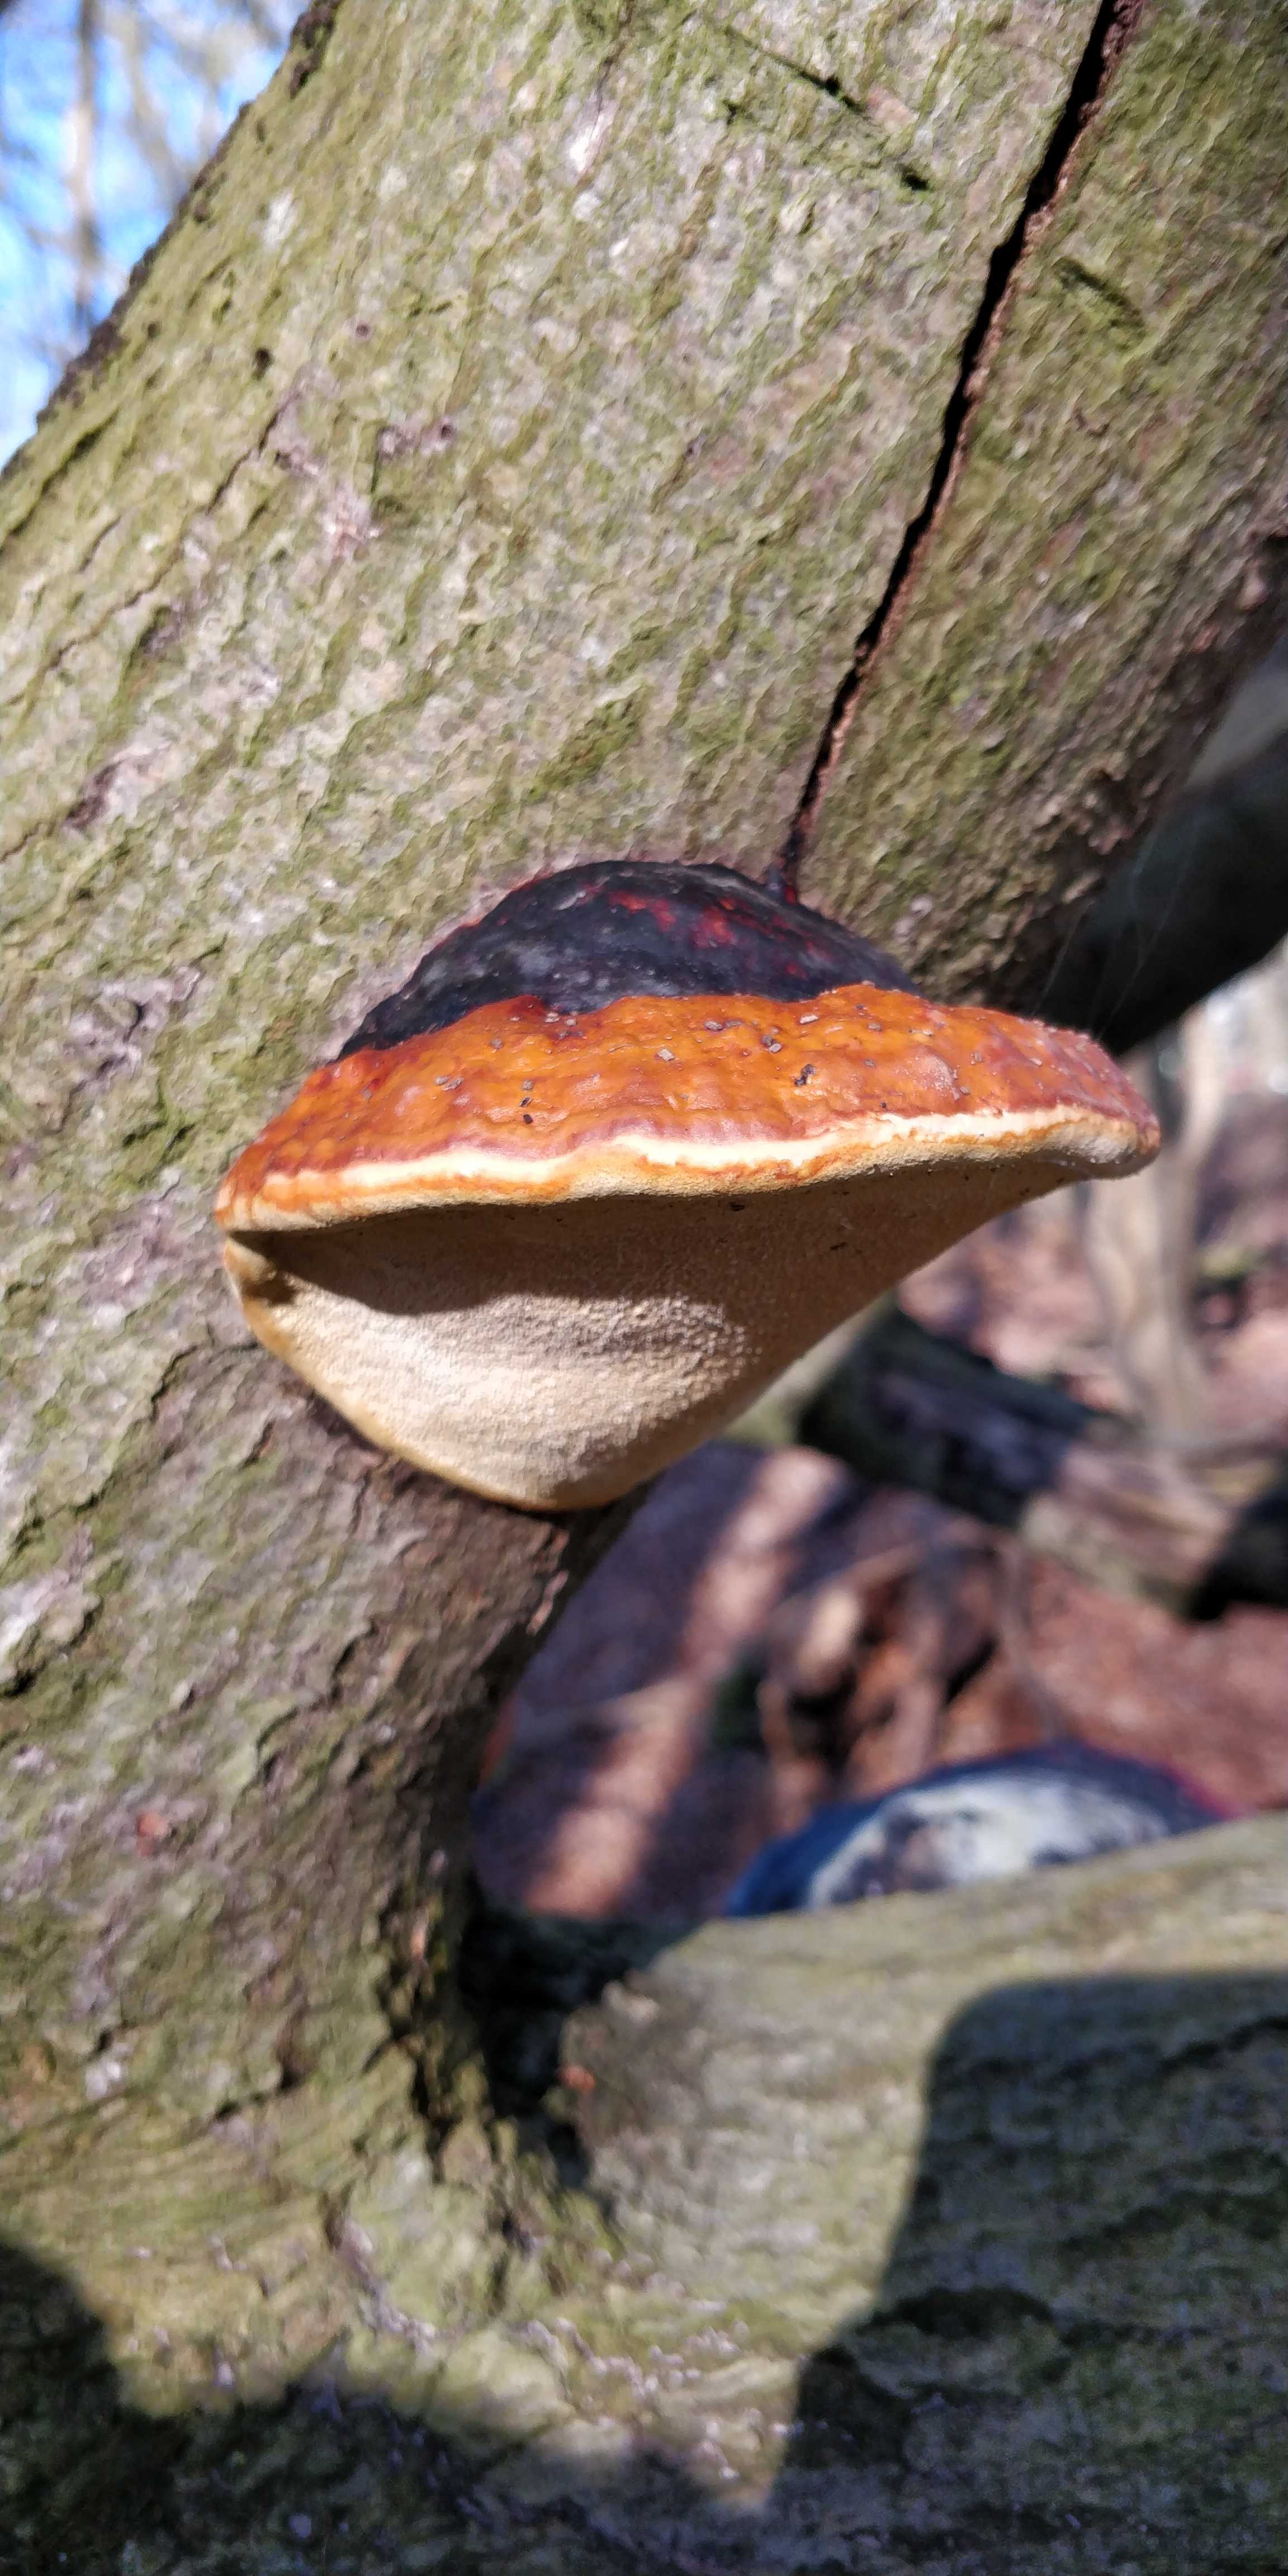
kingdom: Fungi
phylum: Basidiomycota
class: Agaricomycetes
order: Polyporales
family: Fomitopsidaceae
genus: Fomitopsis
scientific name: Fomitopsis pinicola
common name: randbæltet hovporesvamp
